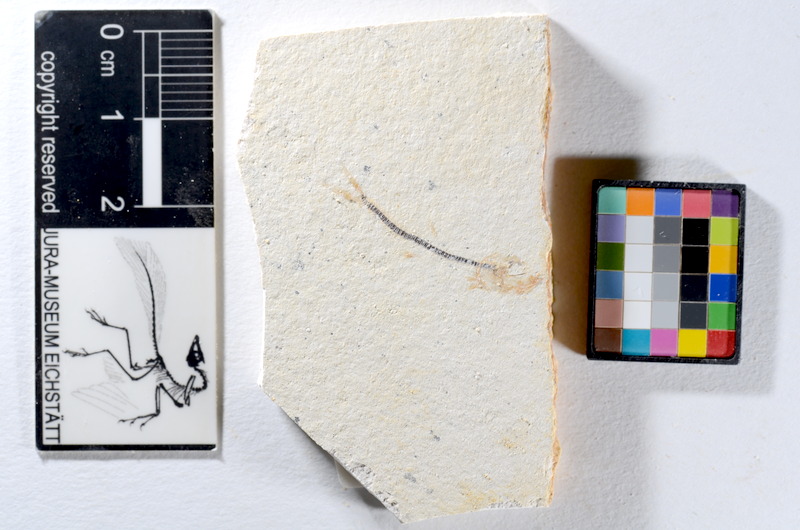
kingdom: Animalia
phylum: Chordata
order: Salmoniformes
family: Orthogonikleithridae
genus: Orthogonikleithrus
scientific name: Orthogonikleithrus hoelli
